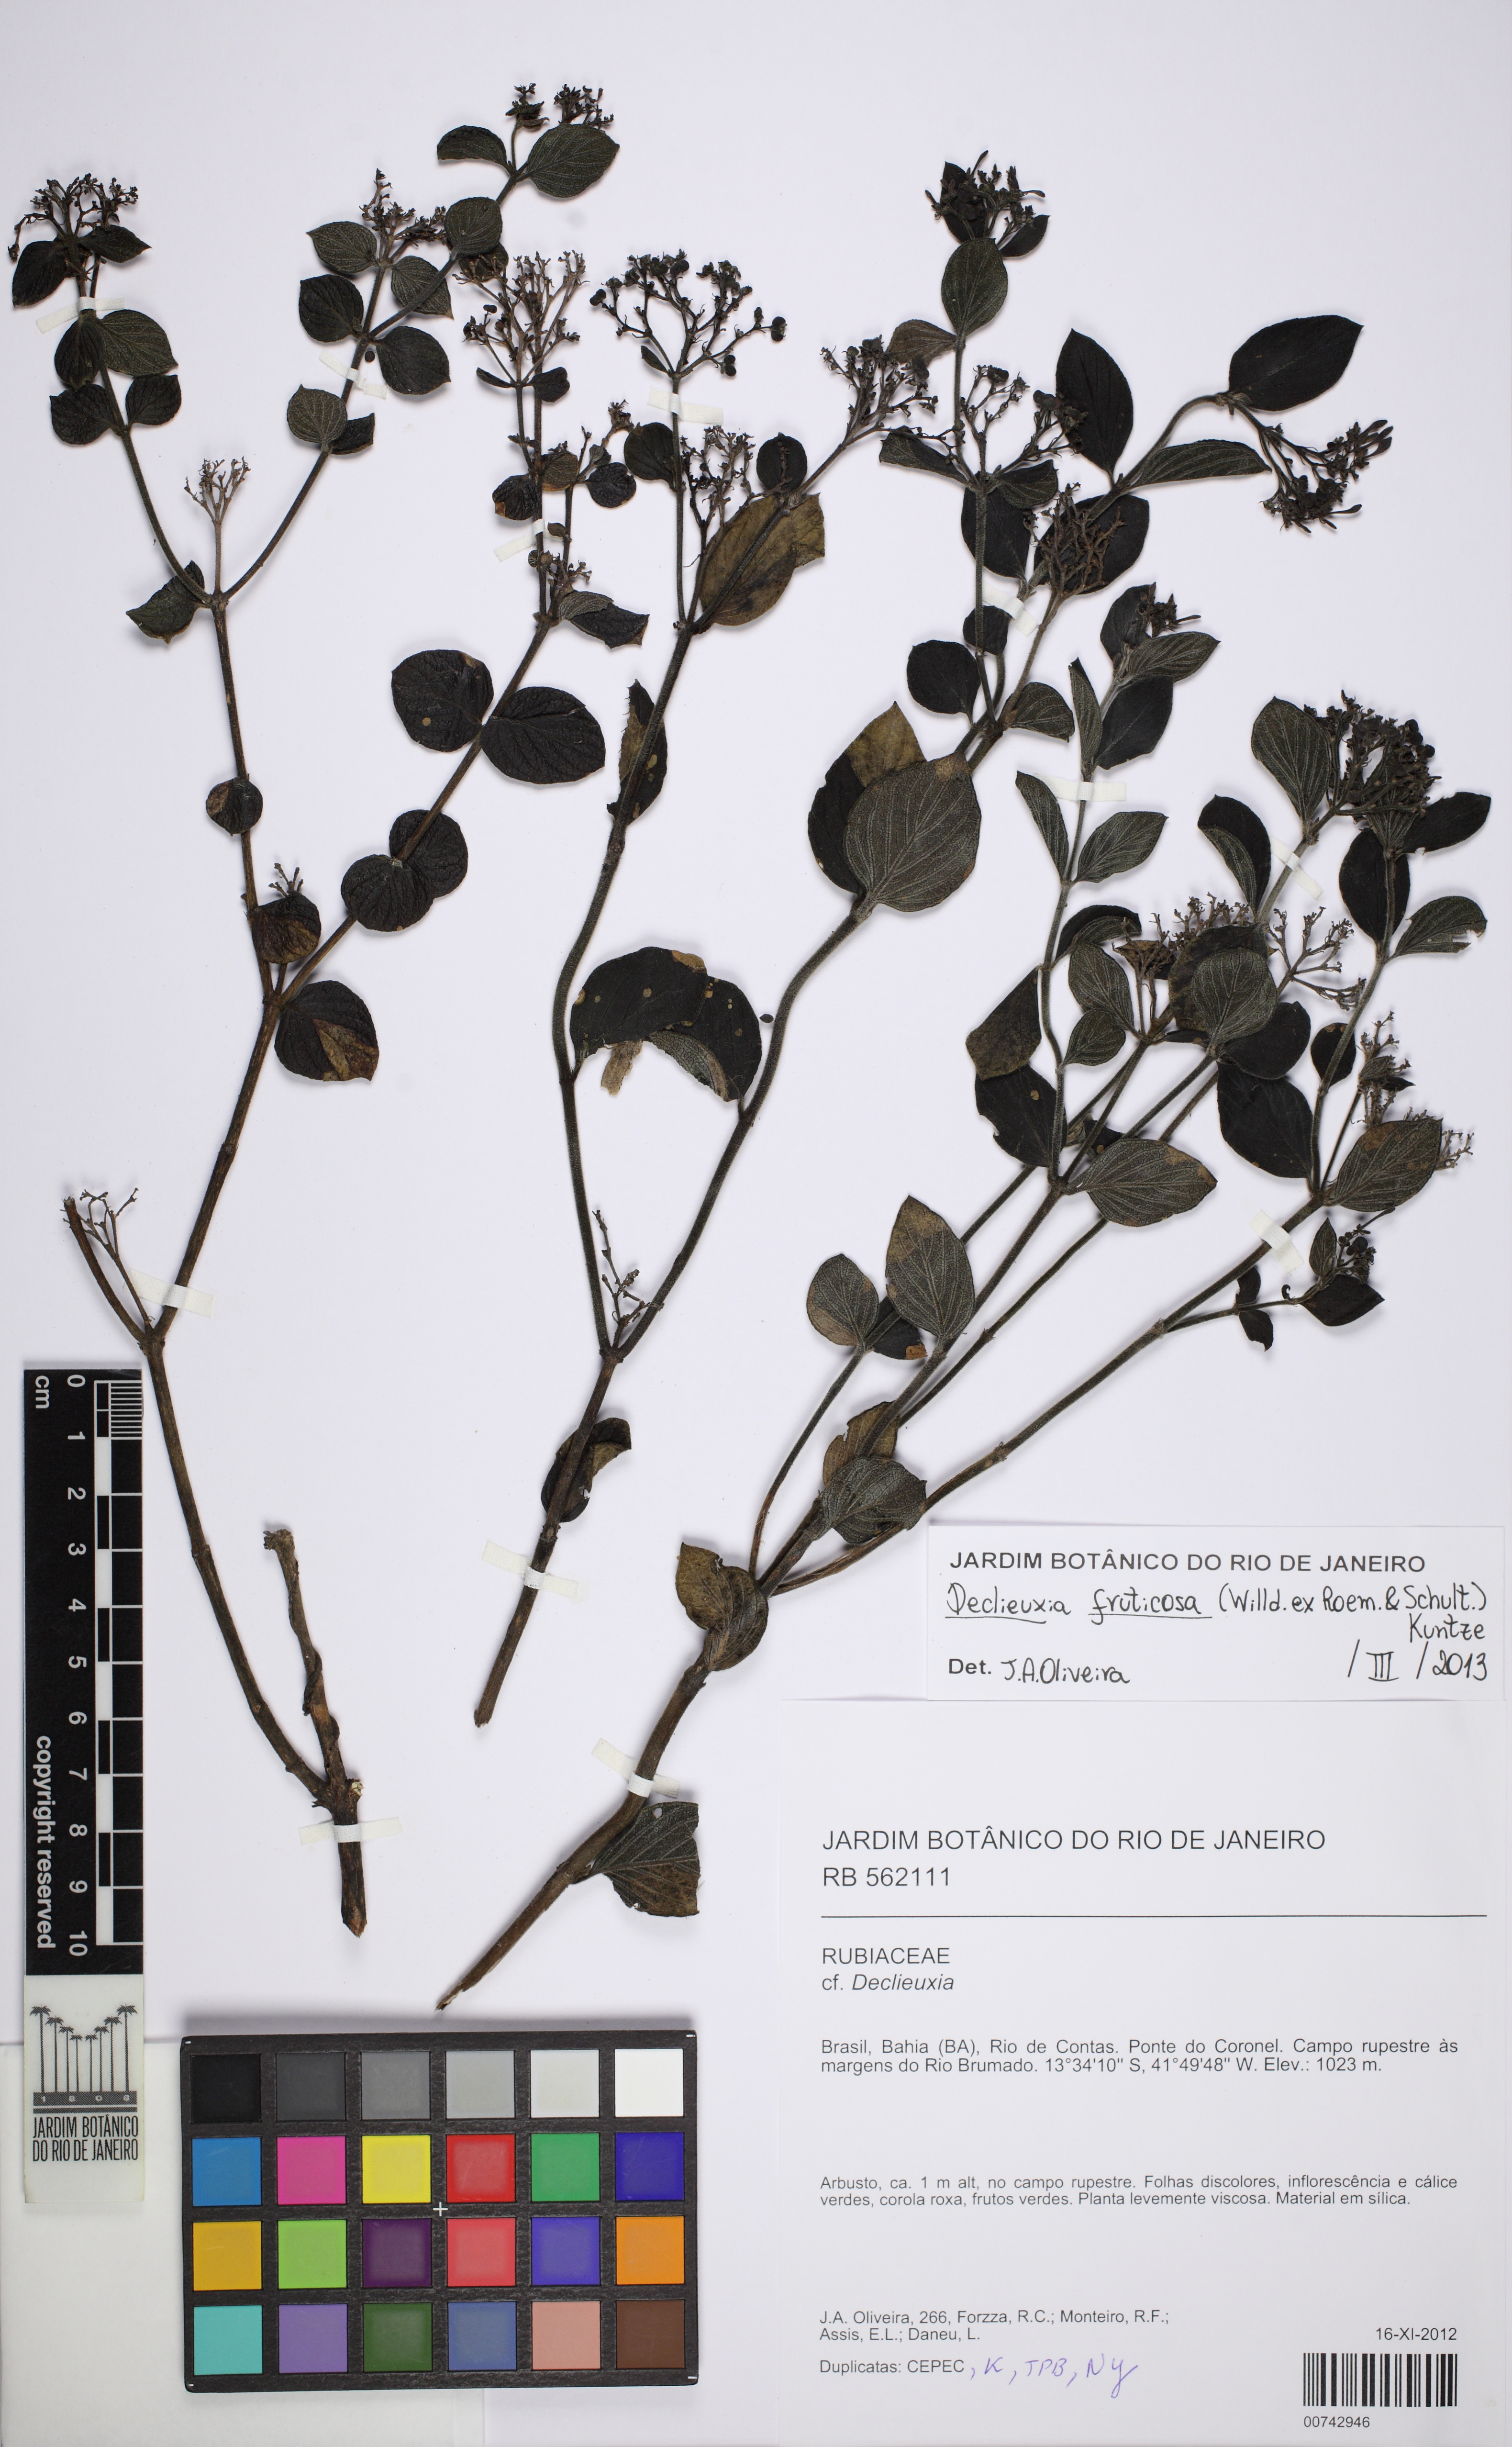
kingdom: Plantae
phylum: Tracheophyta
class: Magnoliopsida
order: Gentianales
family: Rubiaceae
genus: Declieuxia
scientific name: Declieuxia fruticosa
